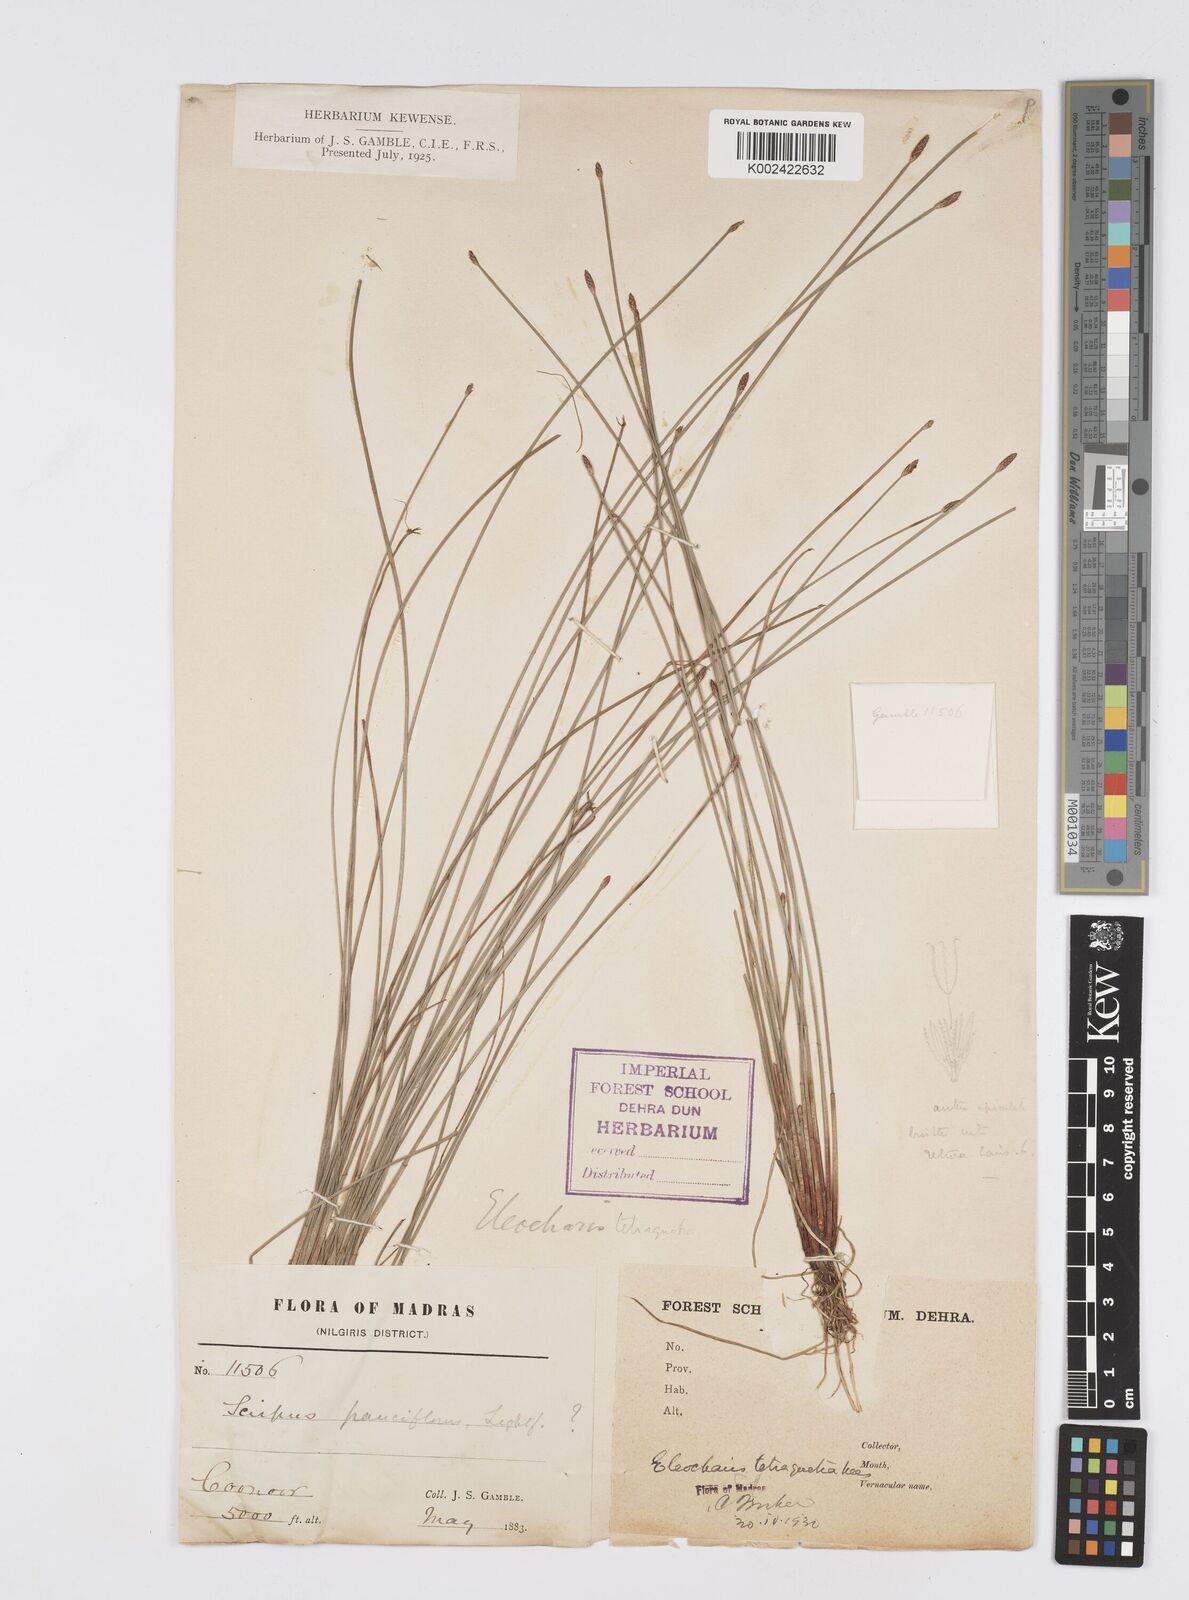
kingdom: Plantae
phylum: Tracheophyta
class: Liliopsida
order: Poales
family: Cyperaceae
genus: Eleocharis
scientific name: Eleocharis tetraquetra
